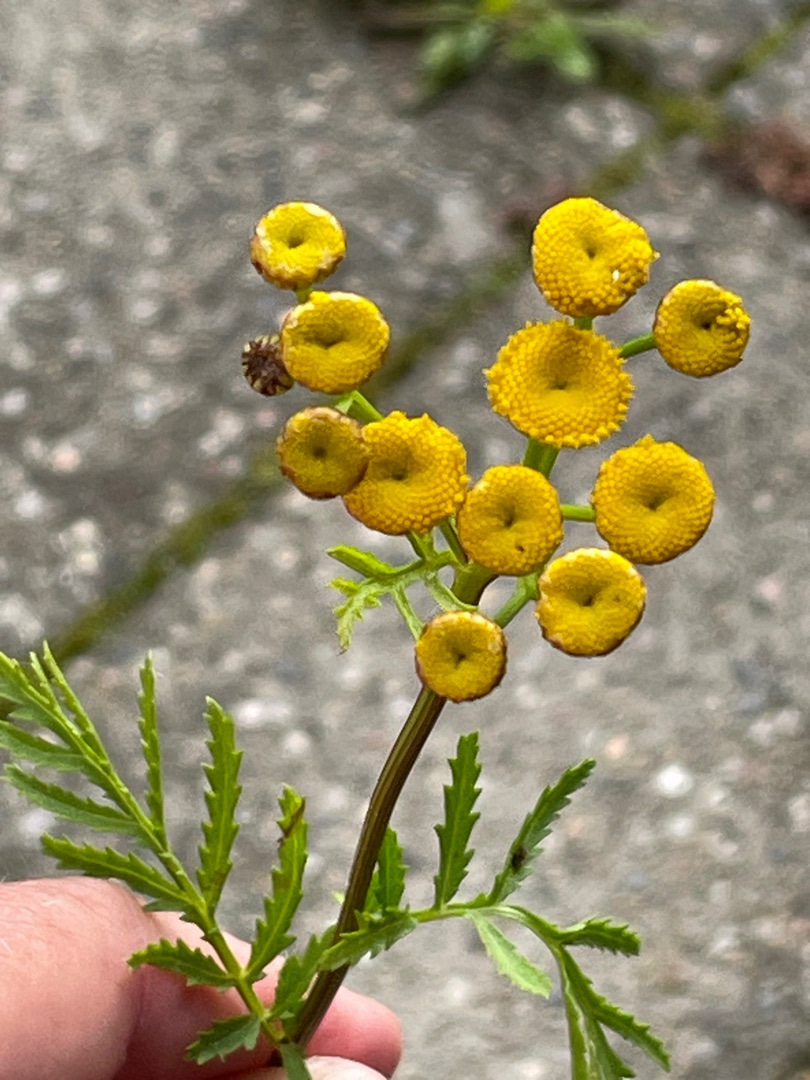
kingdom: Plantae
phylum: Tracheophyta
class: Magnoliopsida
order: Asterales
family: Asteraceae
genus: Tanacetum
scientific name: Tanacetum vulgare
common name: Rejnfan
